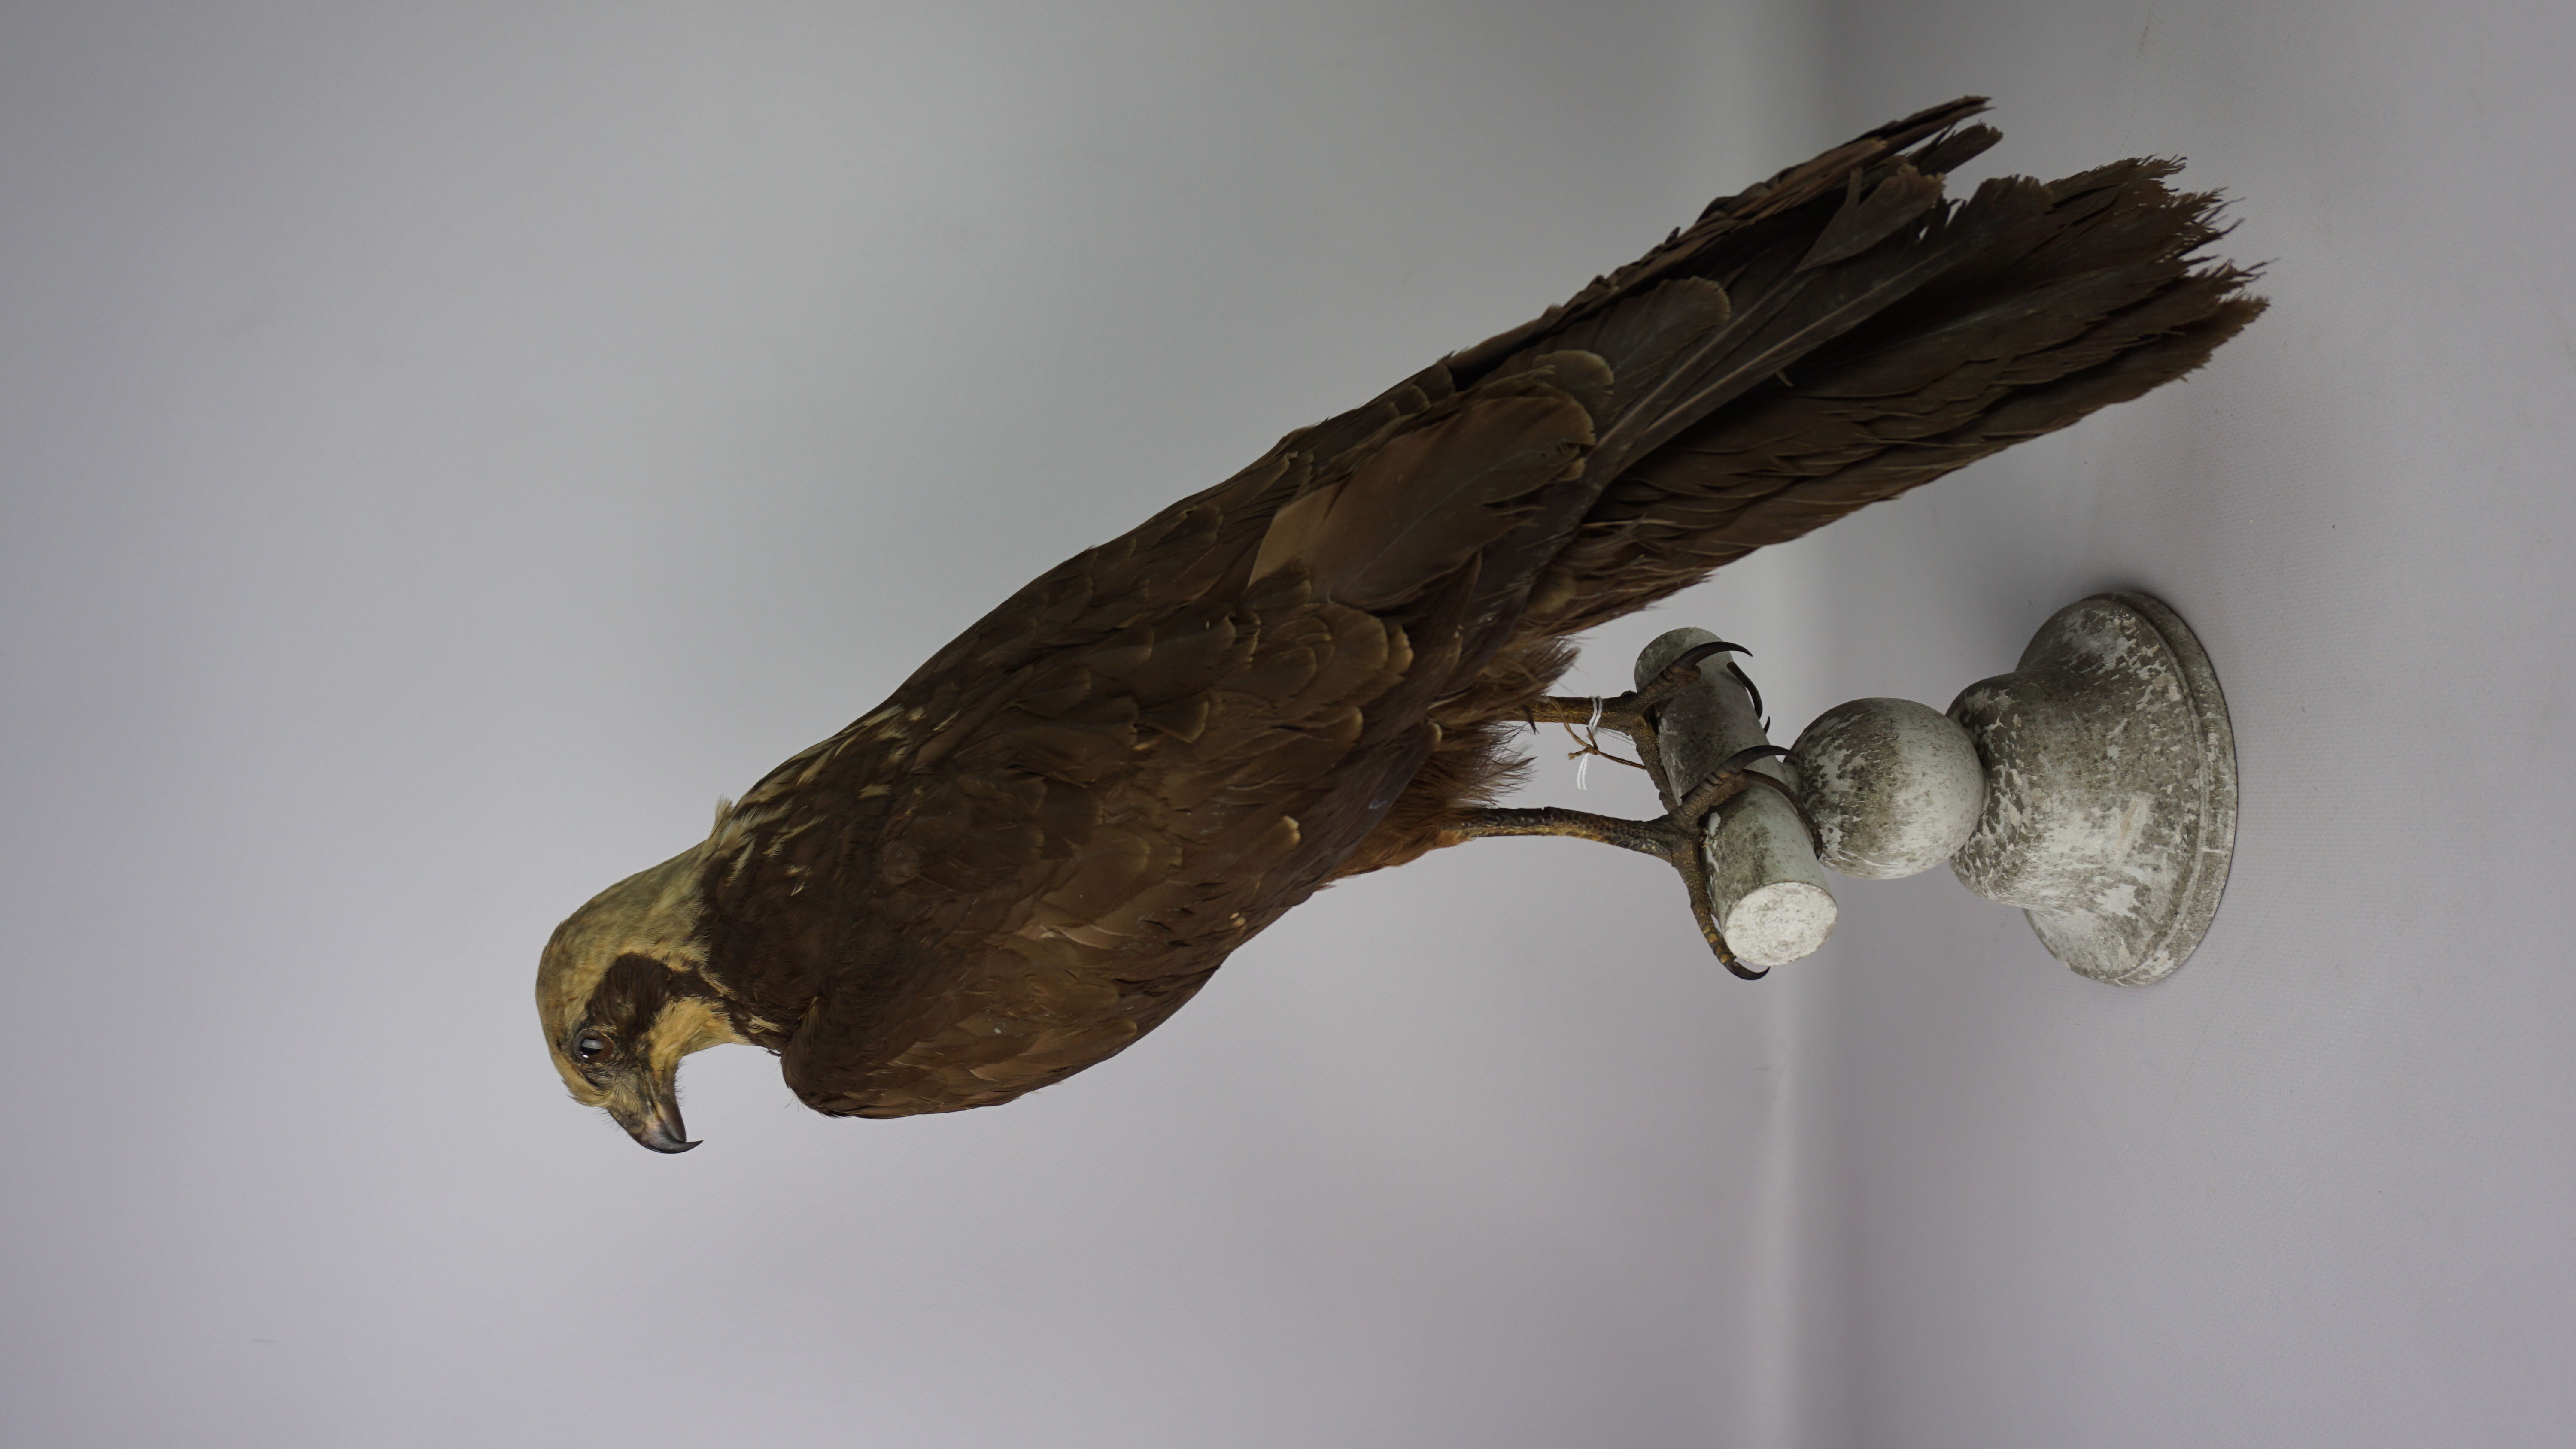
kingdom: Animalia
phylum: Chordata
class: Aves
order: Accipitriformes
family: Accipitridae
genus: Circus
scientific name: Circus aeruginosus
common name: Western marsh harrier
